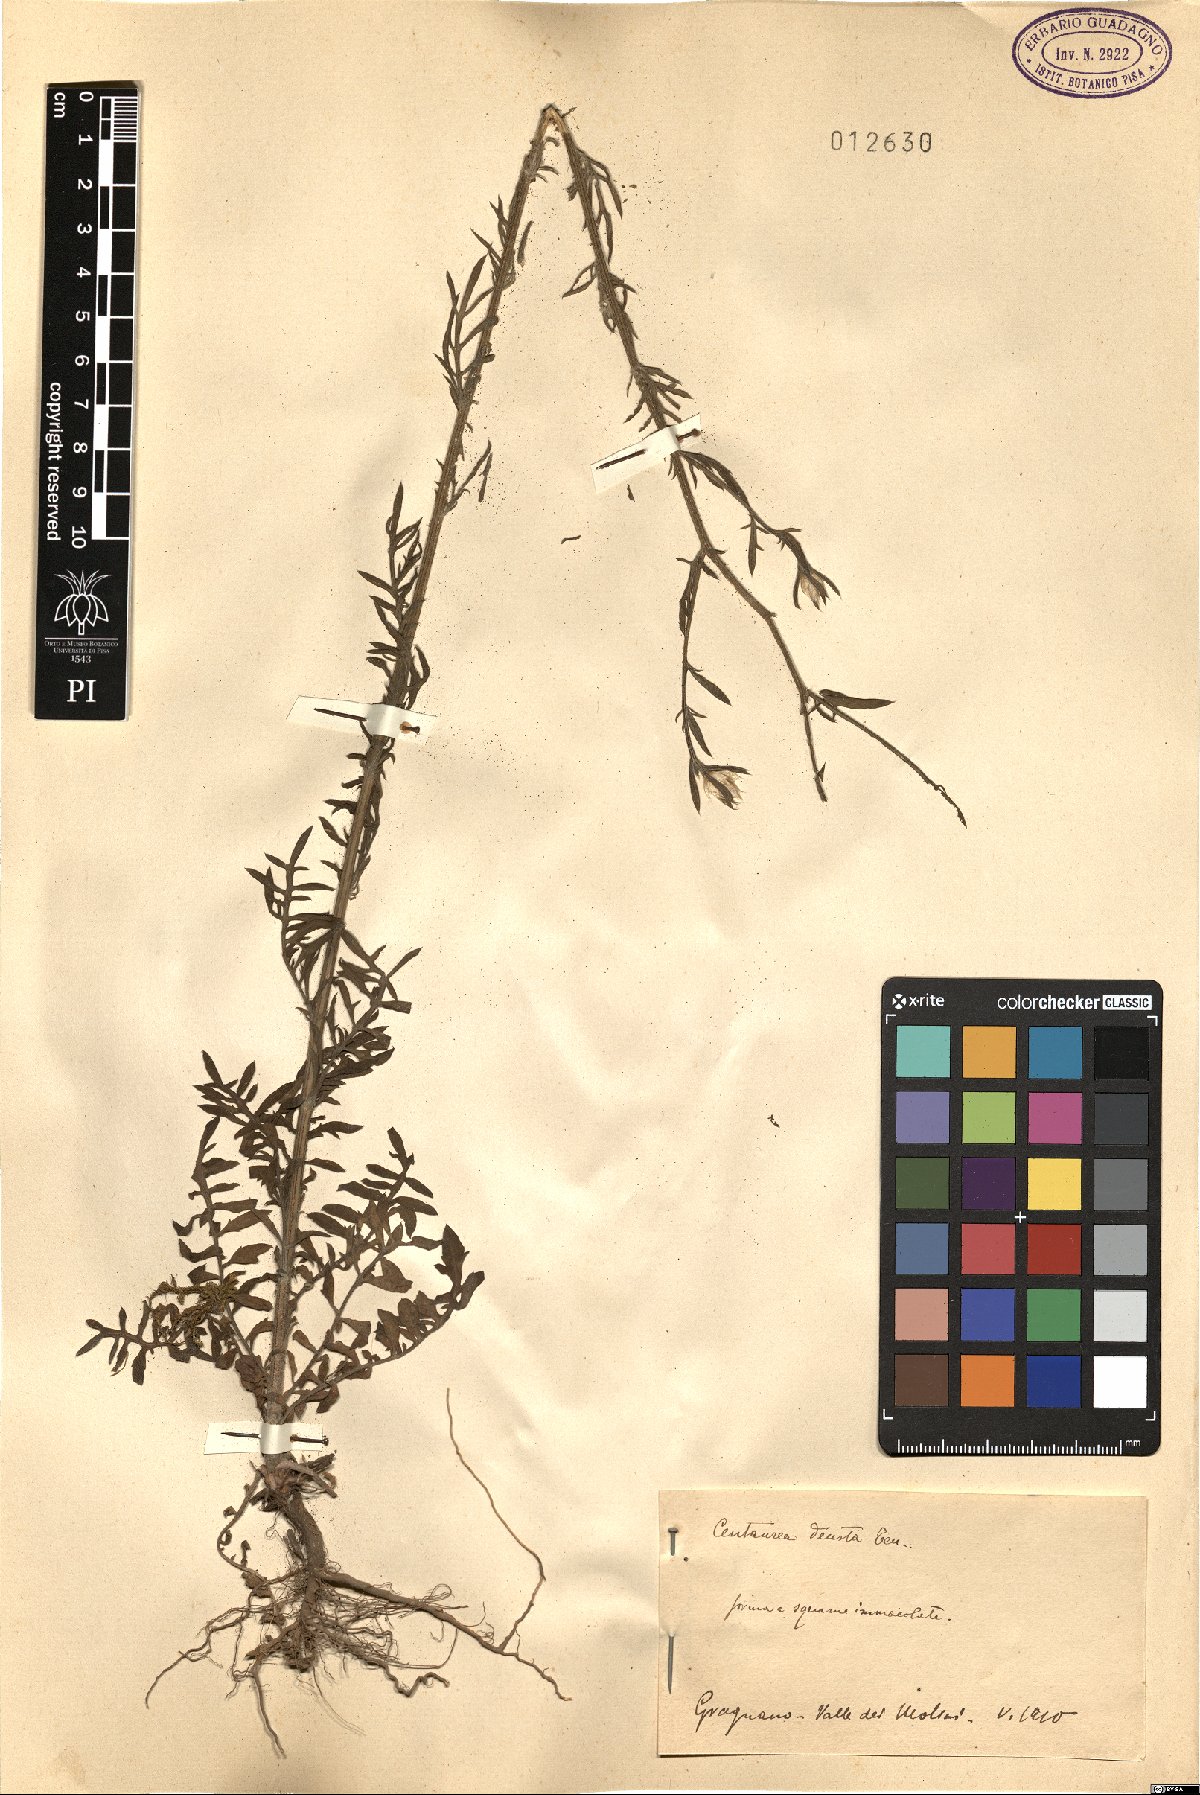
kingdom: Plantae
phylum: Tracheophyta
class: Magnoliopsida
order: Asterales
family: Asteraceae
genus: Centaurea
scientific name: Centaurea deusta
